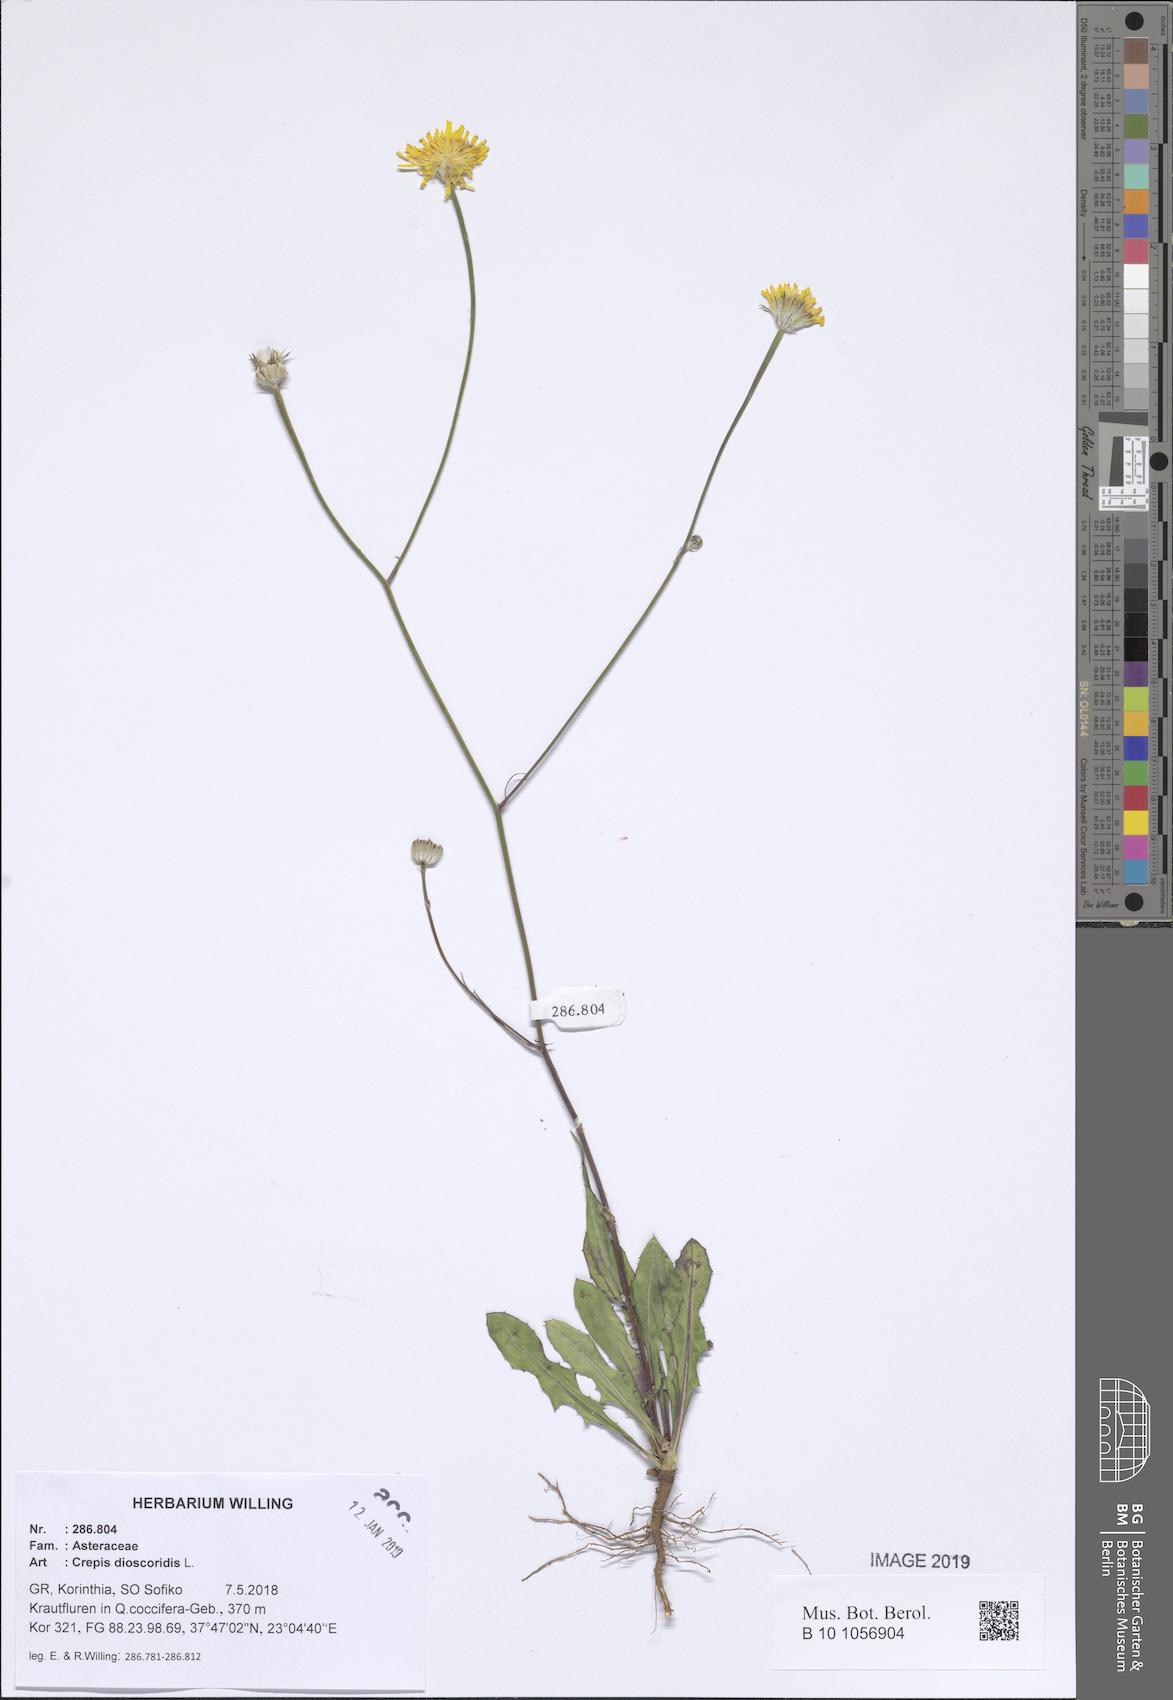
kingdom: Plantae
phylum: Tracheophyta
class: Magnoliopsida
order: Asterales
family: Asteraceae
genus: Crepis
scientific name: Crepis dioscoridis
